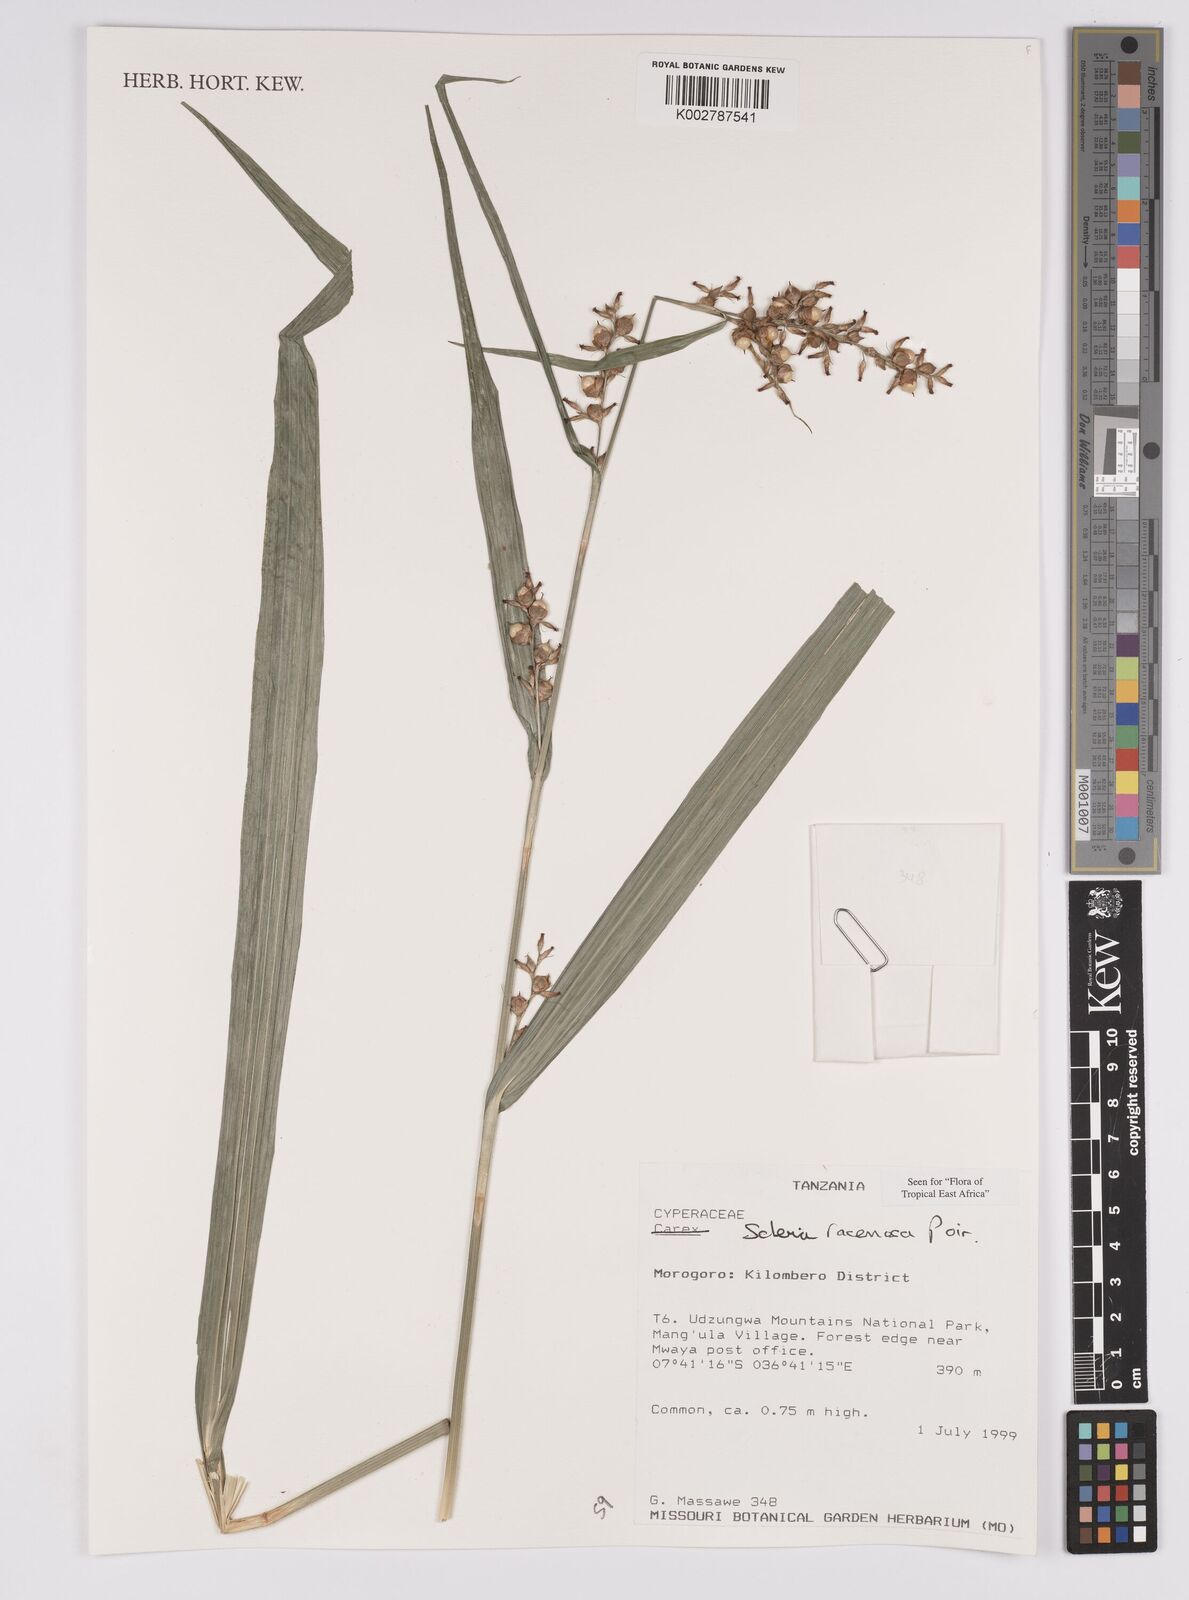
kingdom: Plantae
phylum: Tracheophyta
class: Liliopsida
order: Poales
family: Cyperaceae
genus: Scleria
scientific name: Scleria racemosa
